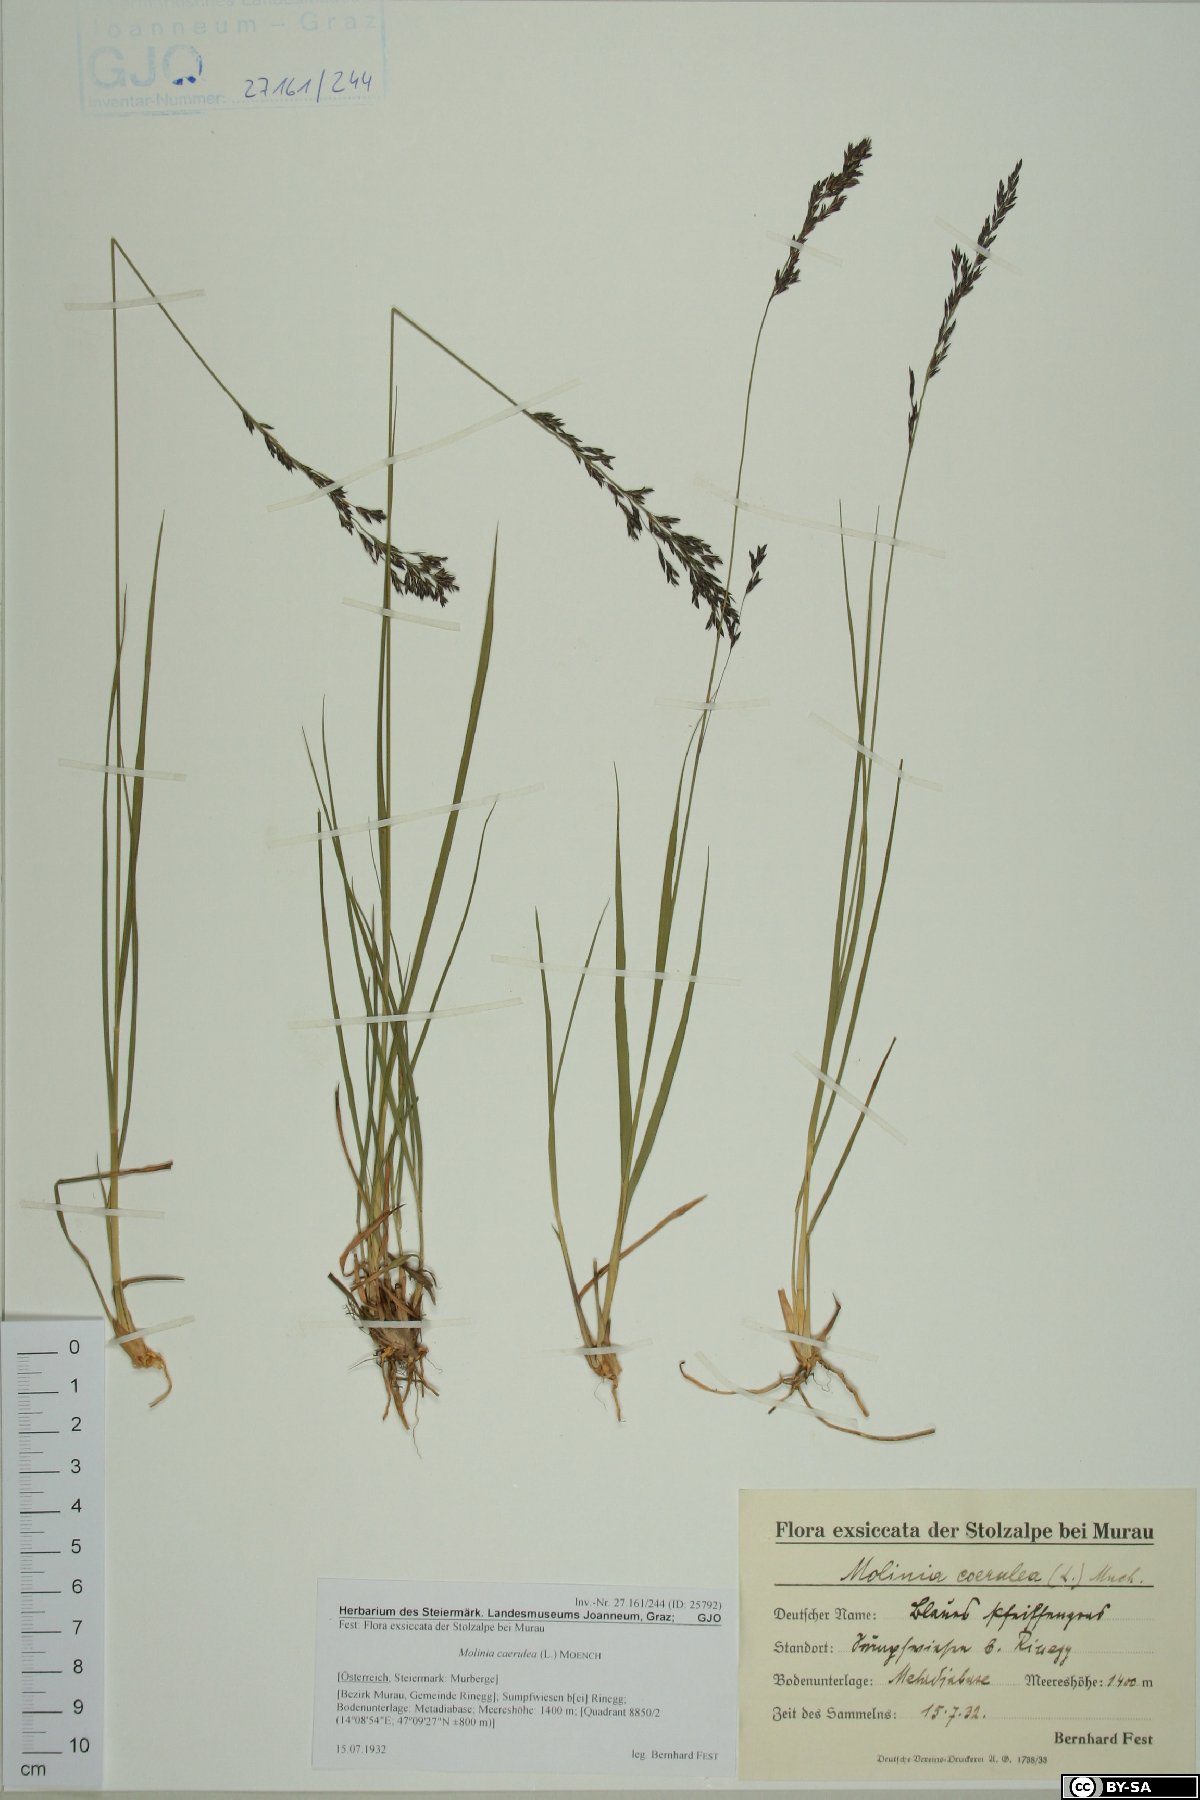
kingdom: Plantae
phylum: Tracheophyta
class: Liliopsida
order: Poales
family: Poaceae
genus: Molinia
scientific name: Molinia caerulea
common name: Purple moor-grass
